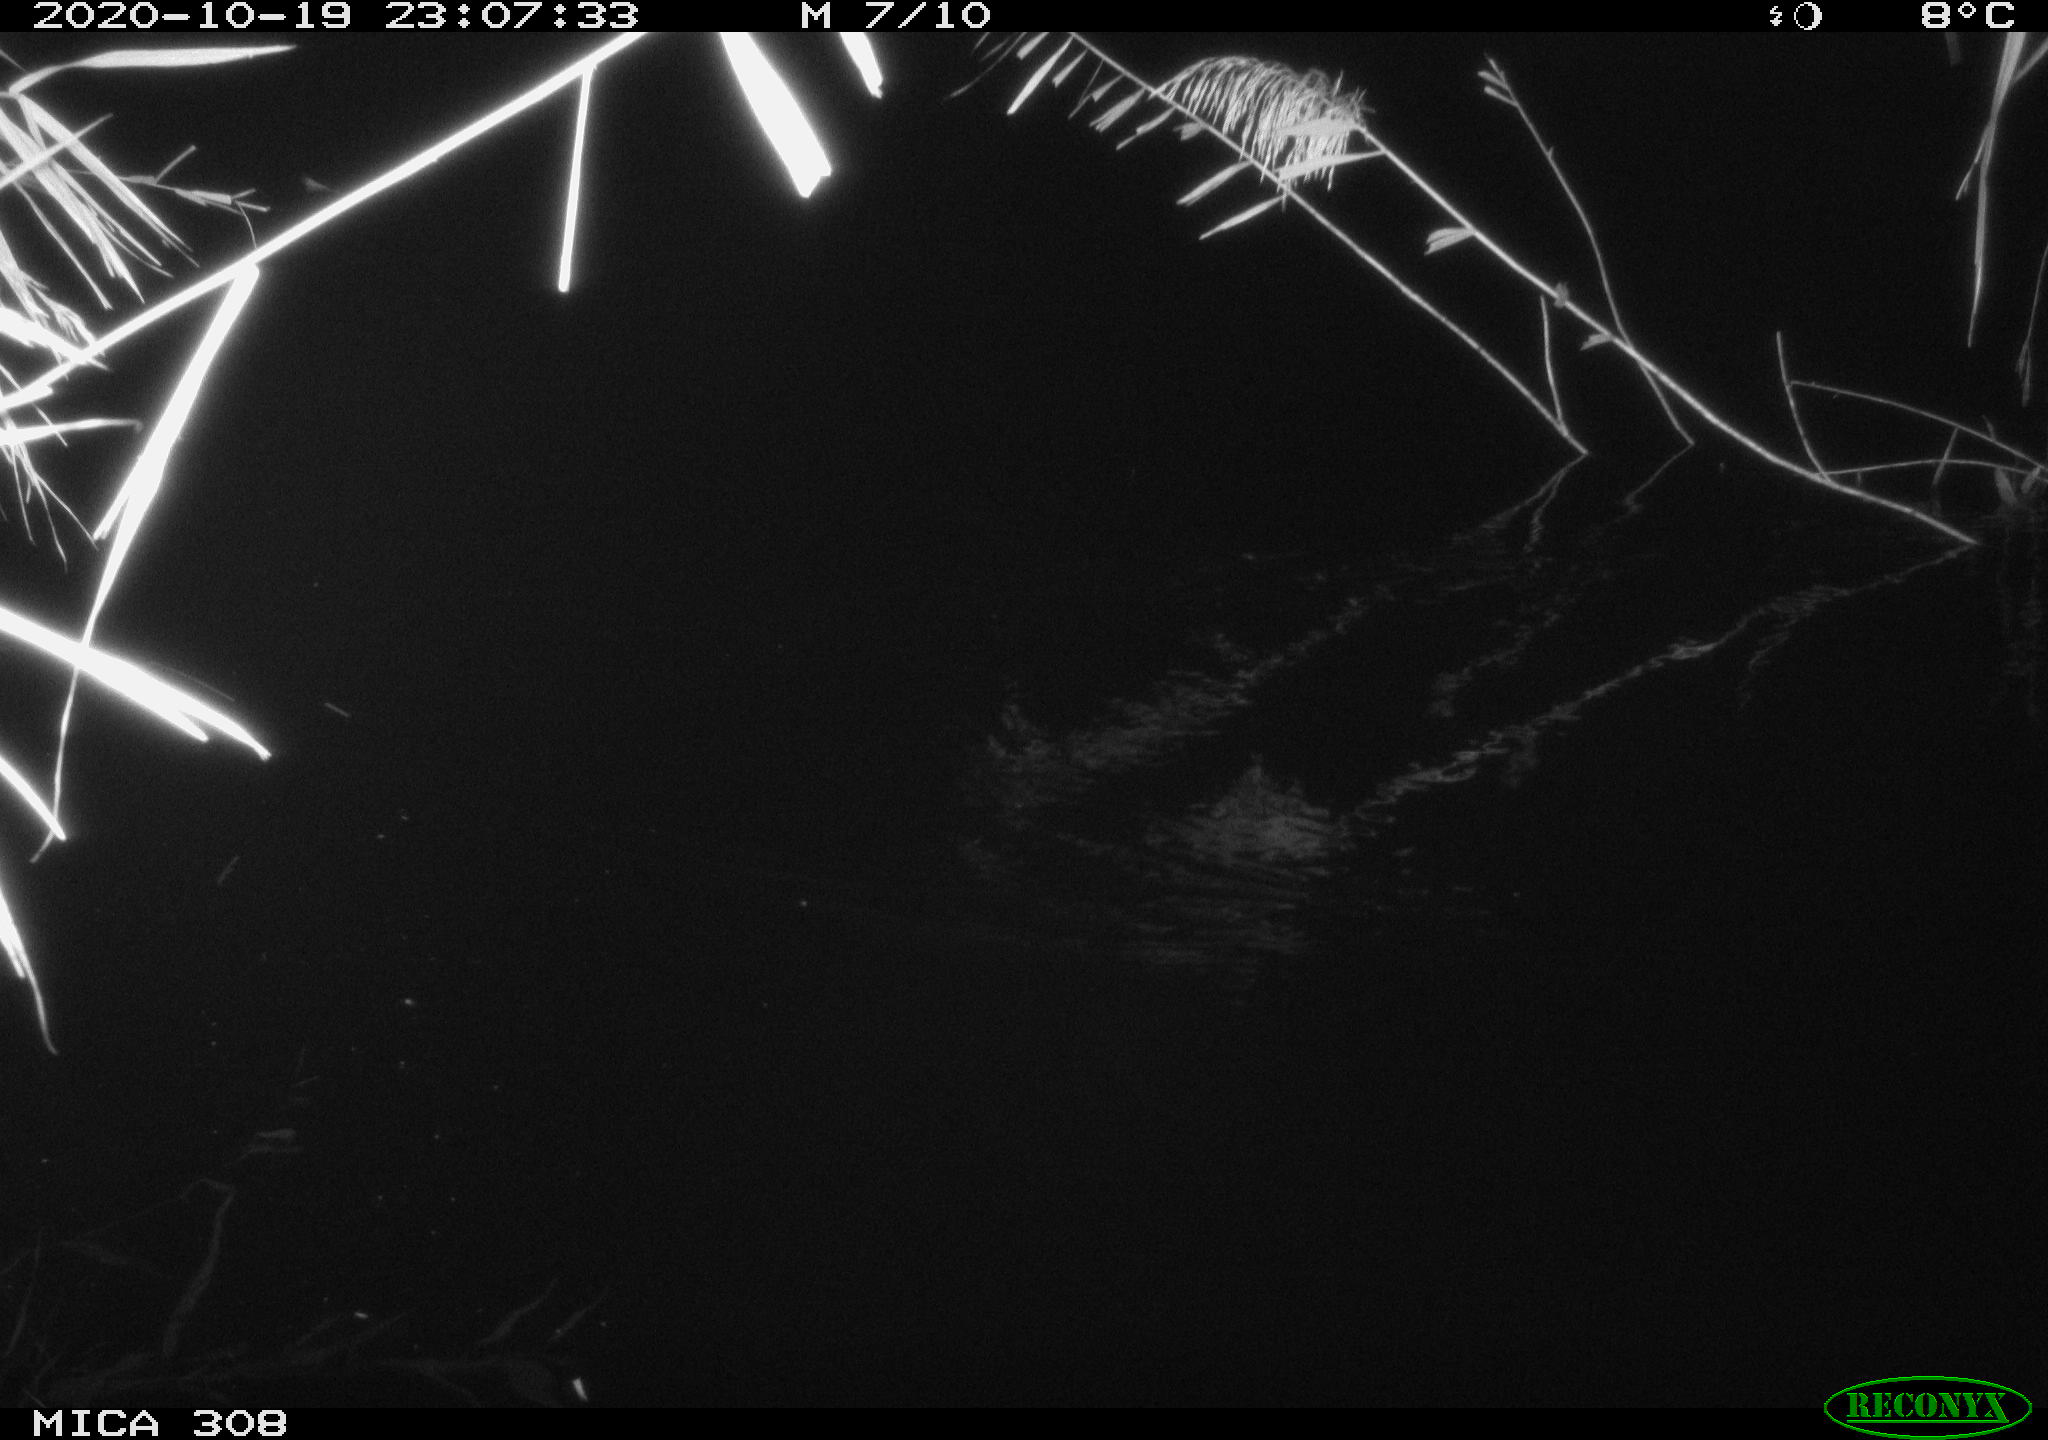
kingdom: Animalia
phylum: Chordata
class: Mammalia
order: Rodentia
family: Muridae
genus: Rattus
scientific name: Rattus norvegicus
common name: Brown rat
